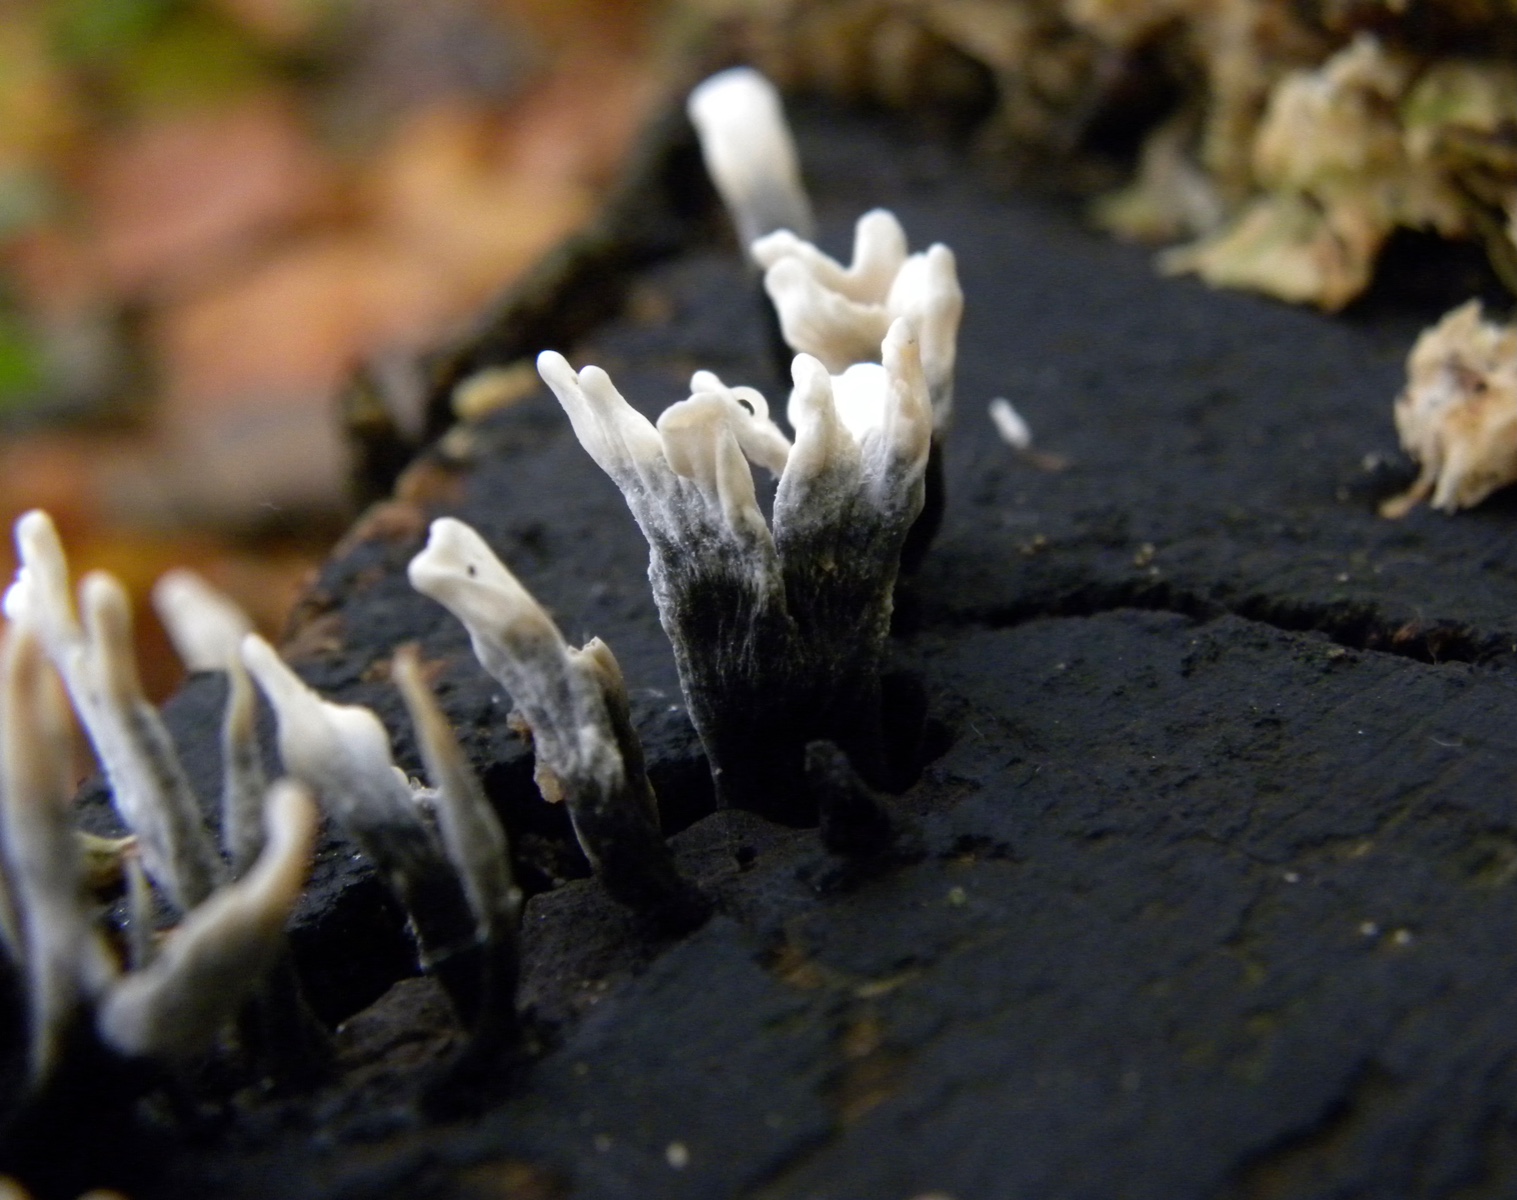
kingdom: Fungi
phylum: Ascomycota
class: Sordariomycetes
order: Xylariales
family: Xylariaceae
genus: Xylaria
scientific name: Xylaria hypoxylon
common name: grenet stødsvamp
